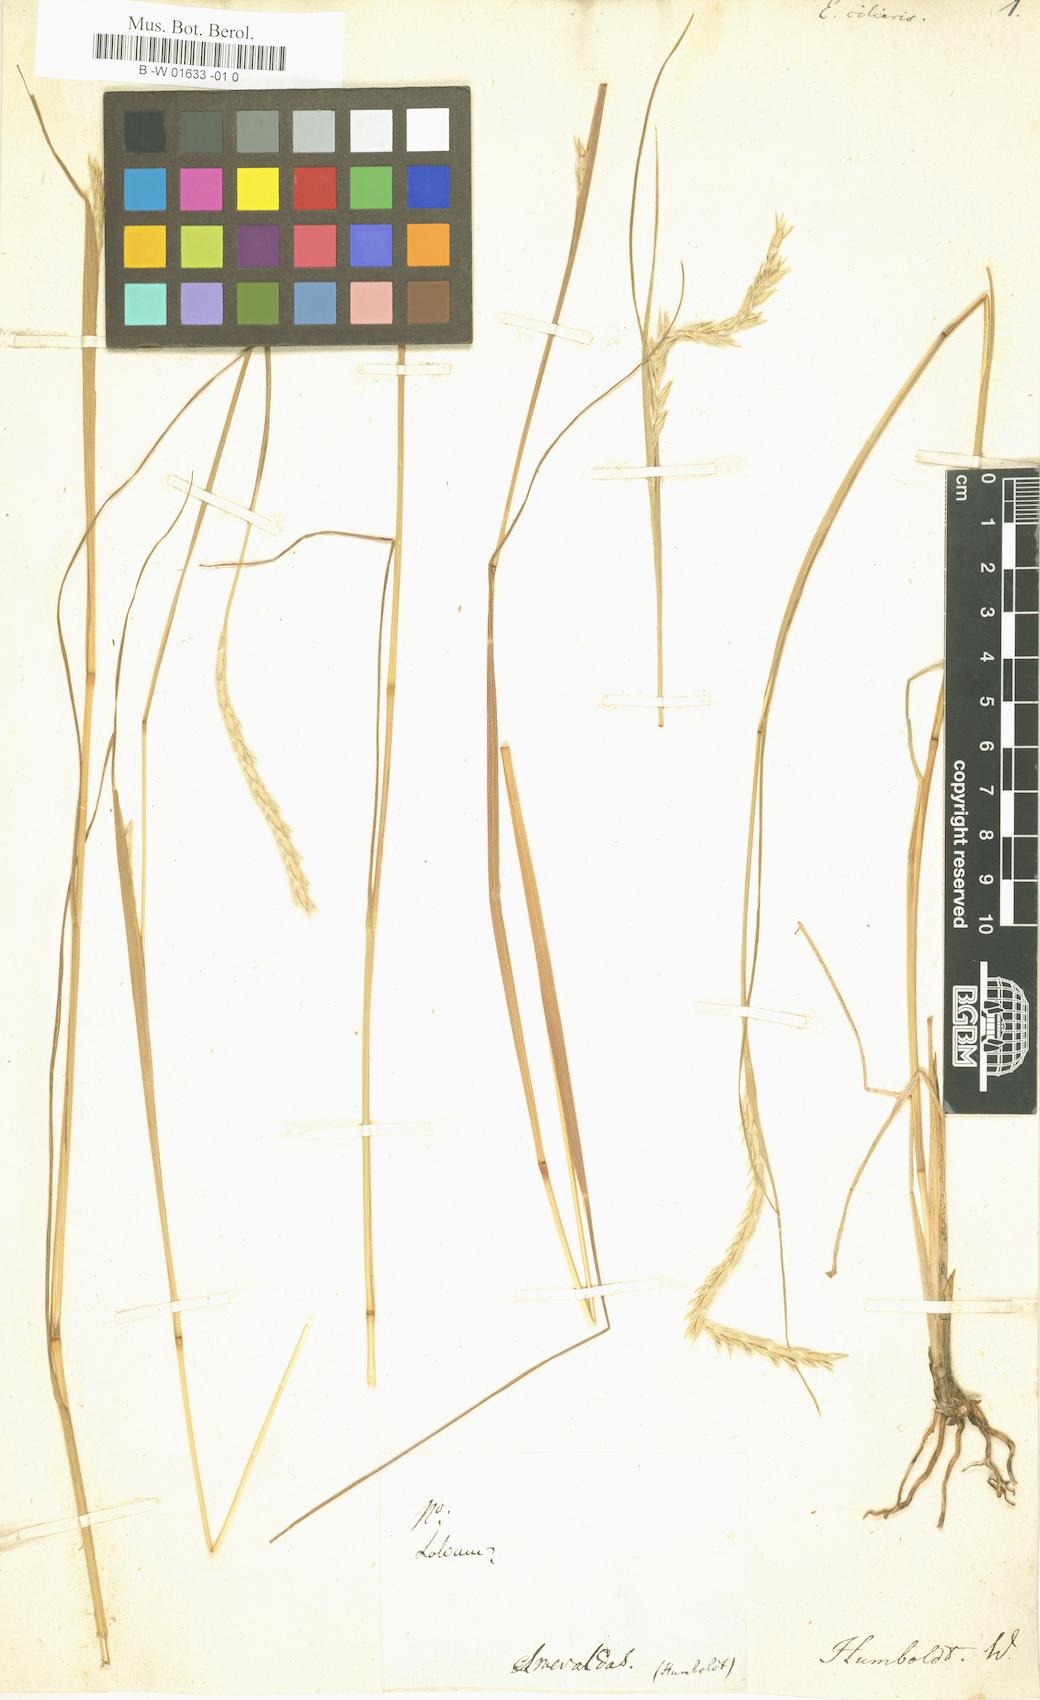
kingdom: Plantae
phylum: Tracheophyta
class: Liliopsida
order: Poales
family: Poaceae
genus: Elionurus
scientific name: Elionurus ciliaris
